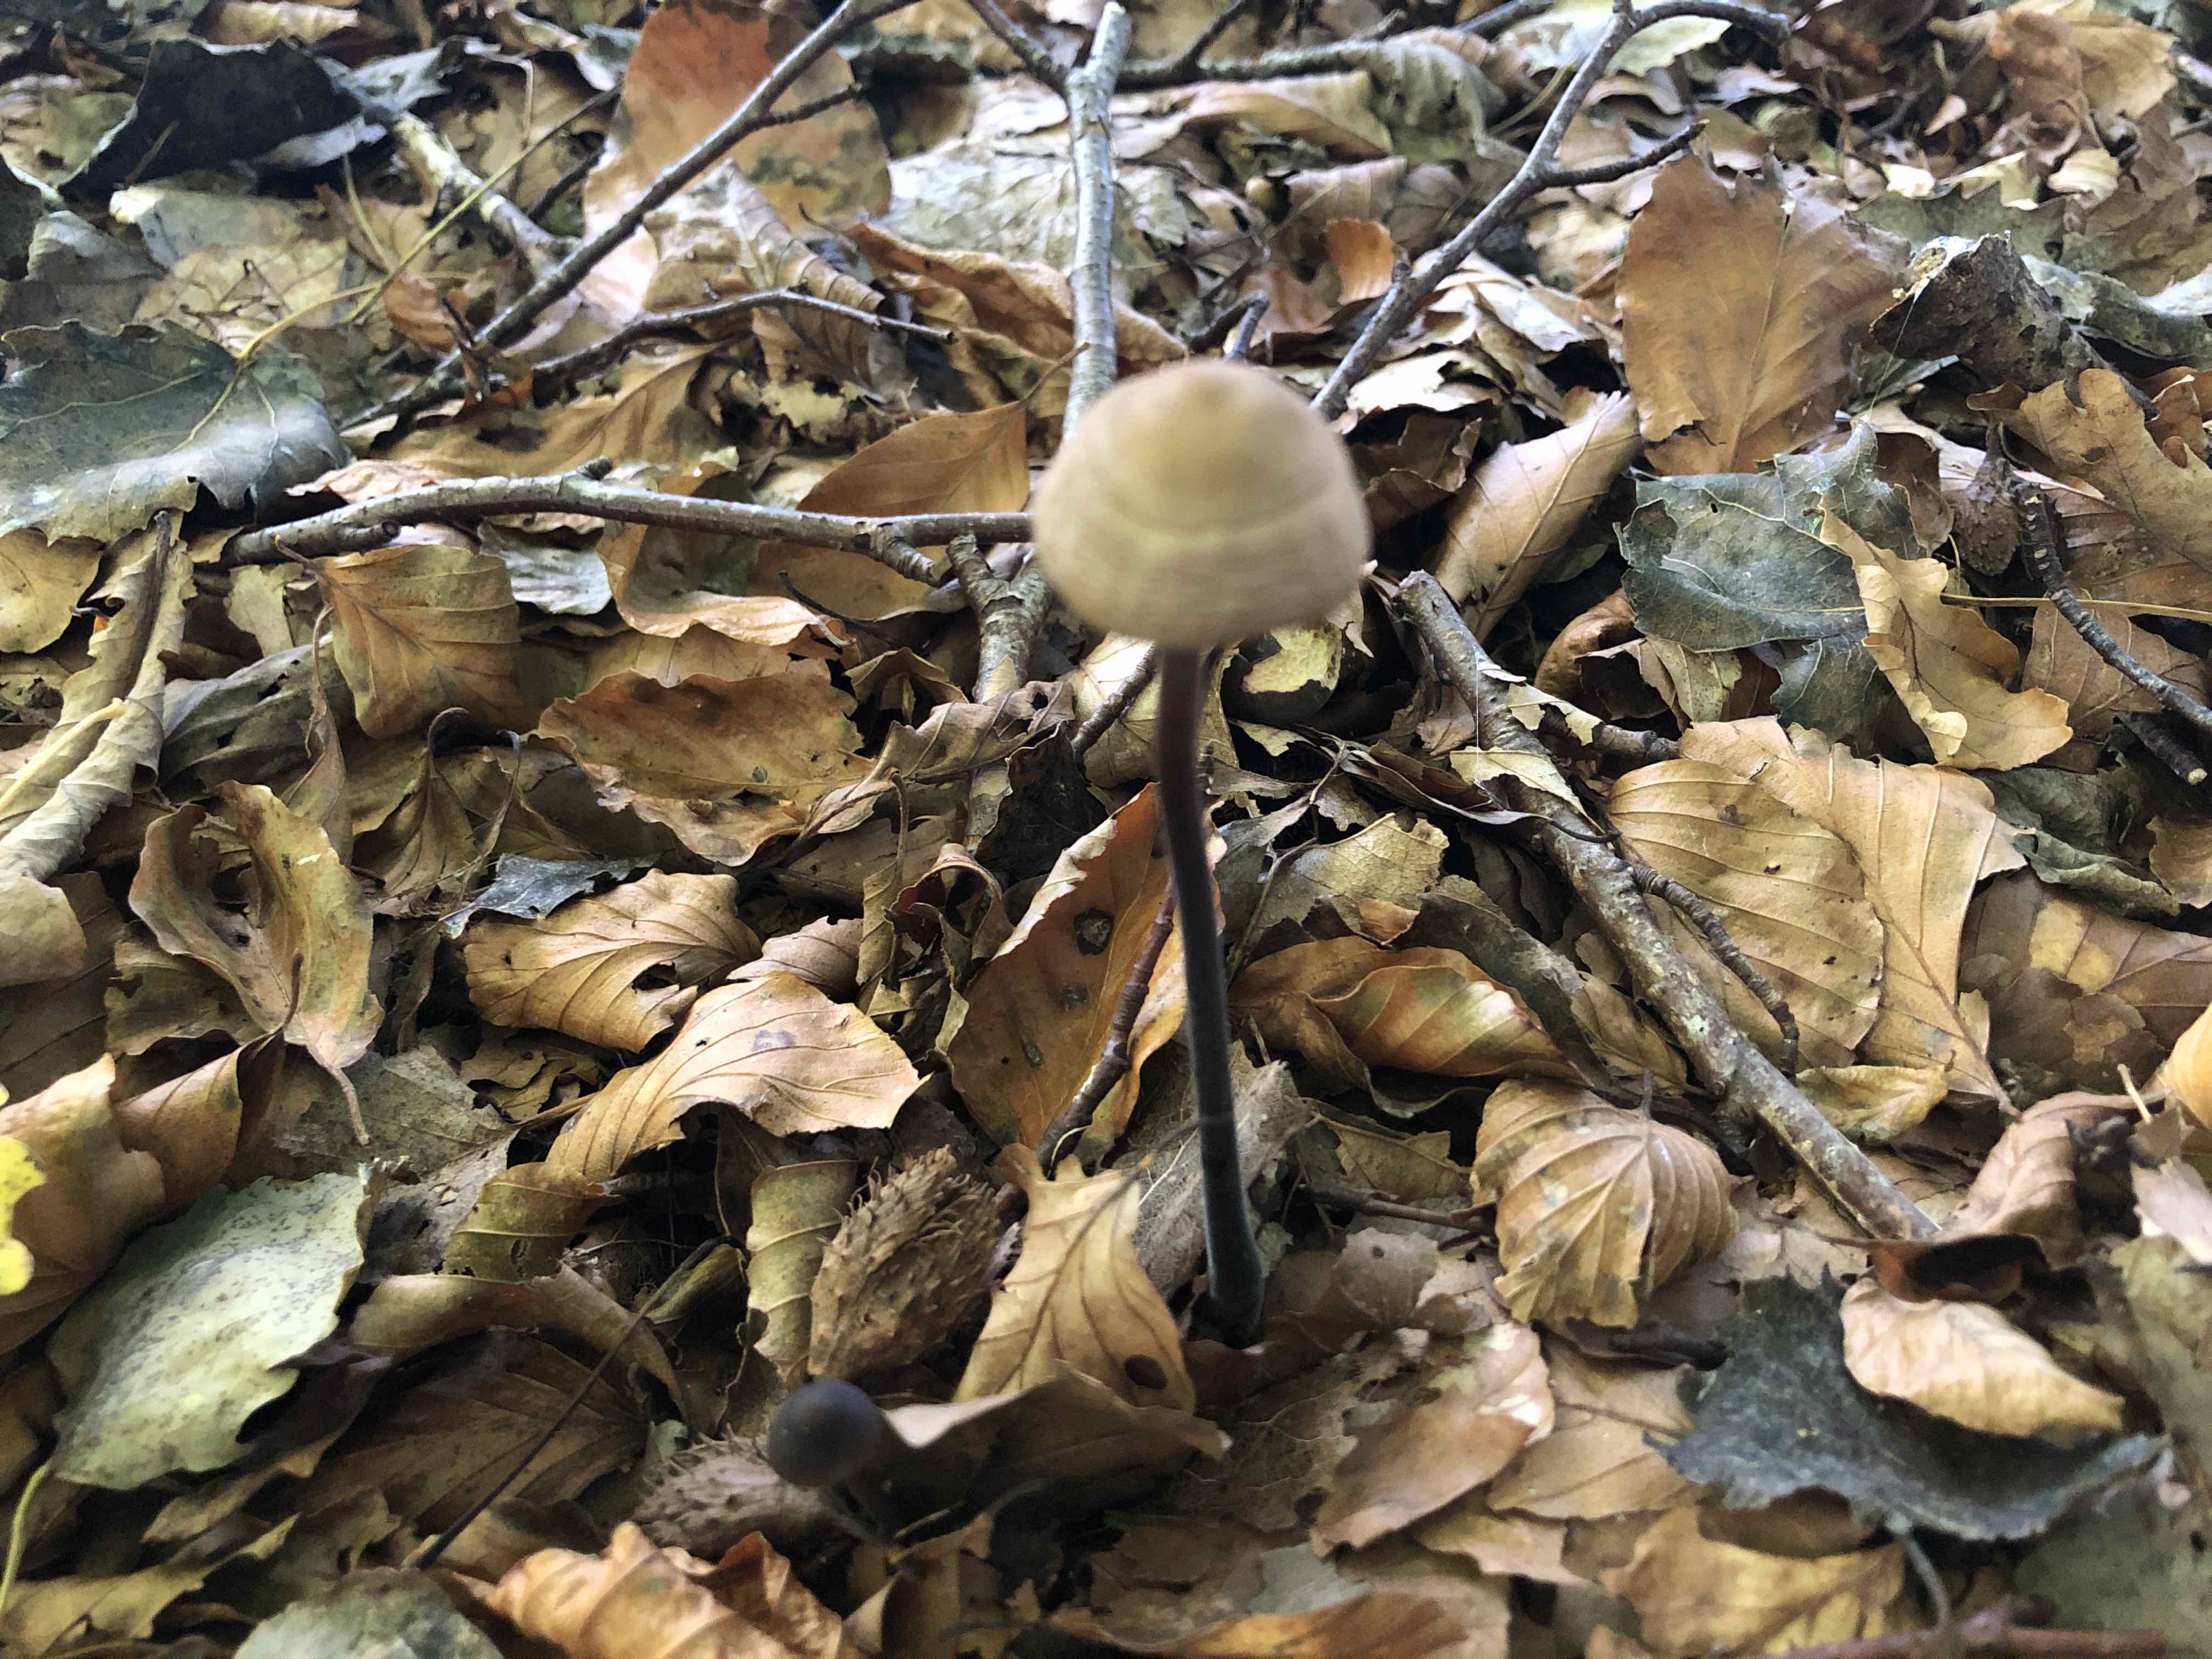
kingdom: Fungi
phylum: Basidiomycota
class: Agaricomycetes
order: Agaricales
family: Omphalotaceae
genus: Mycetinis
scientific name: Mycetinis alliaceus
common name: stor løghat
